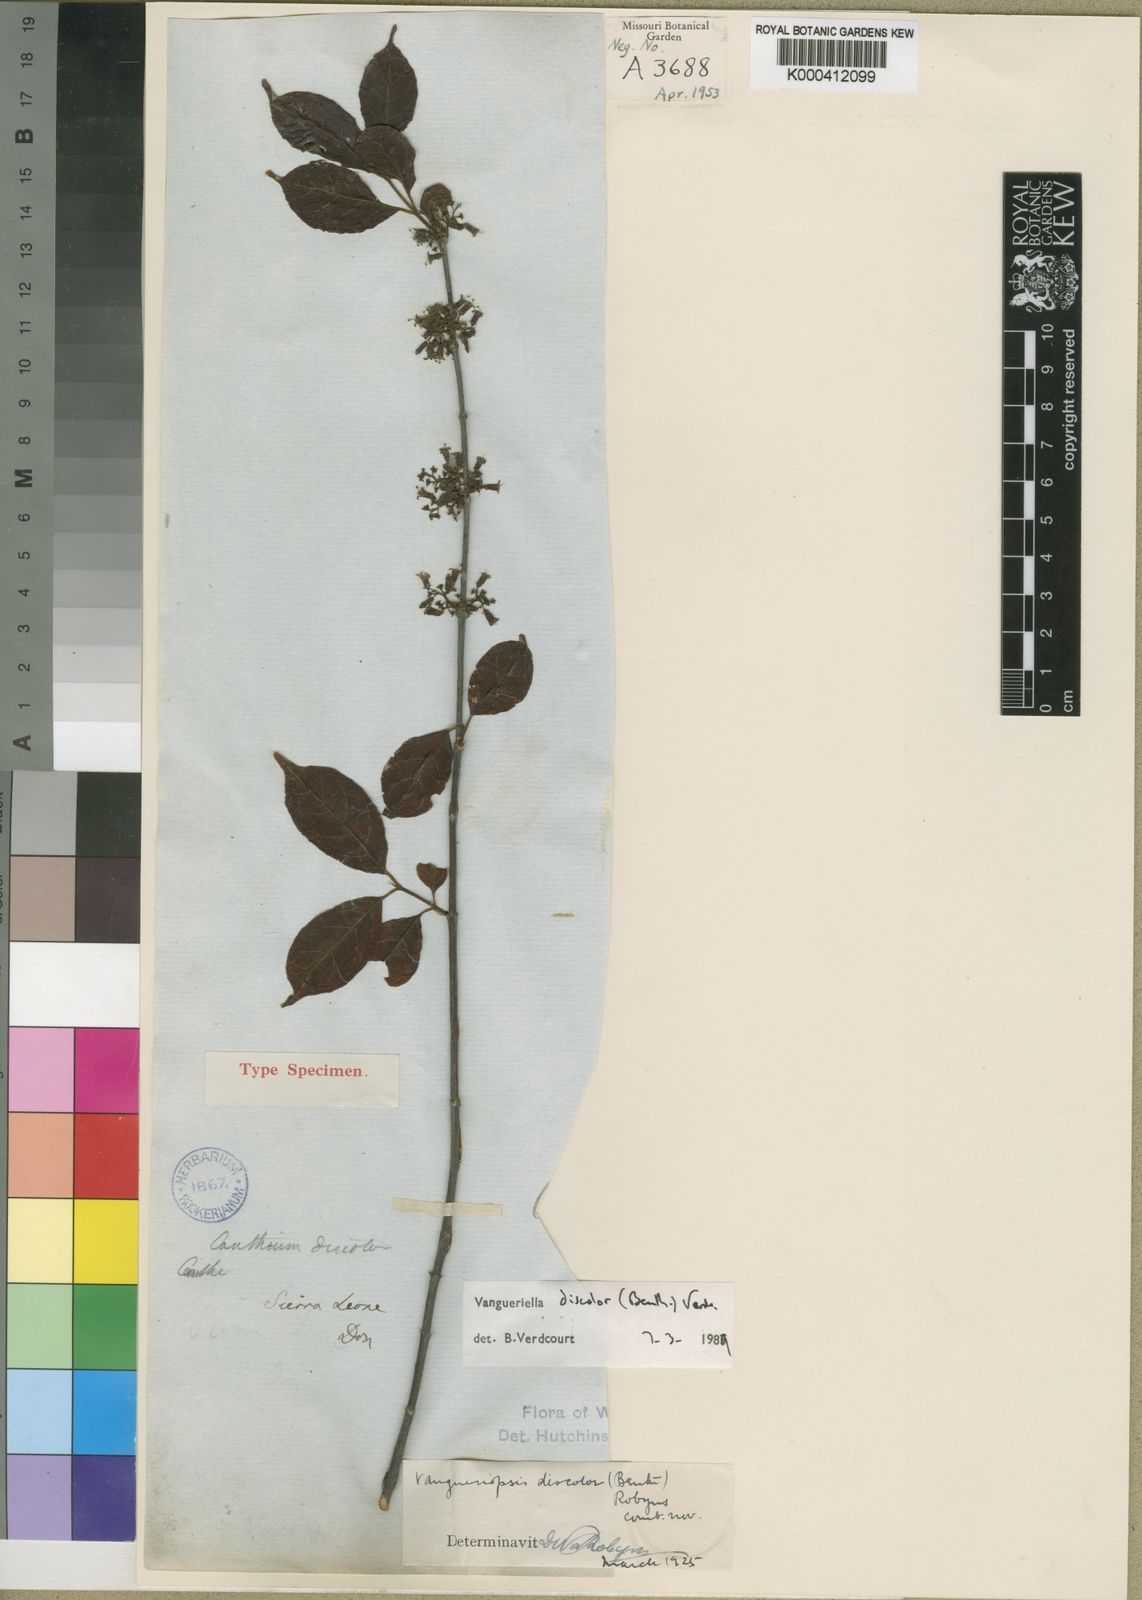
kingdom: Plantae
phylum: Tracheophyta
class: Magnoliopsida
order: Gentianales
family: Rubiaceae
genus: Vangueriella
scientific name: Vangueriella discolor
